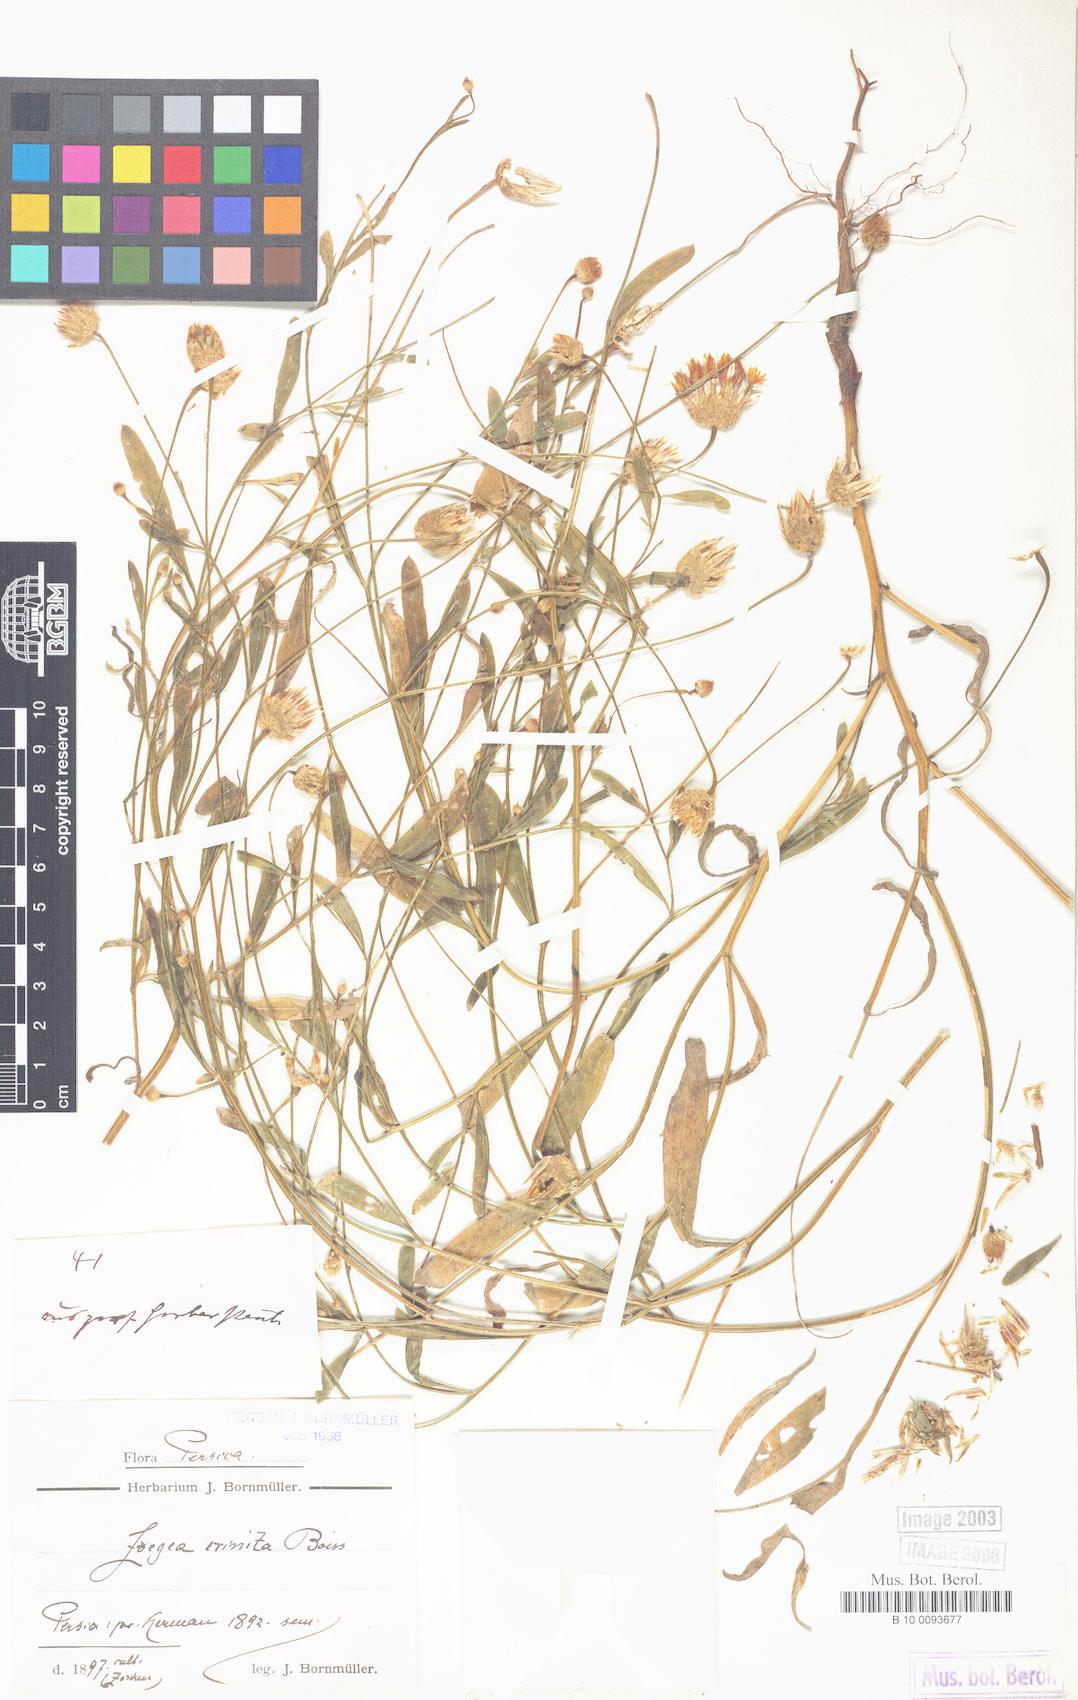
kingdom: Plantae
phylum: Tracheophyta
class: Magnoliopsida
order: Asterales
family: Asteraceae
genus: Zoegea
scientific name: Zoegea crinita
